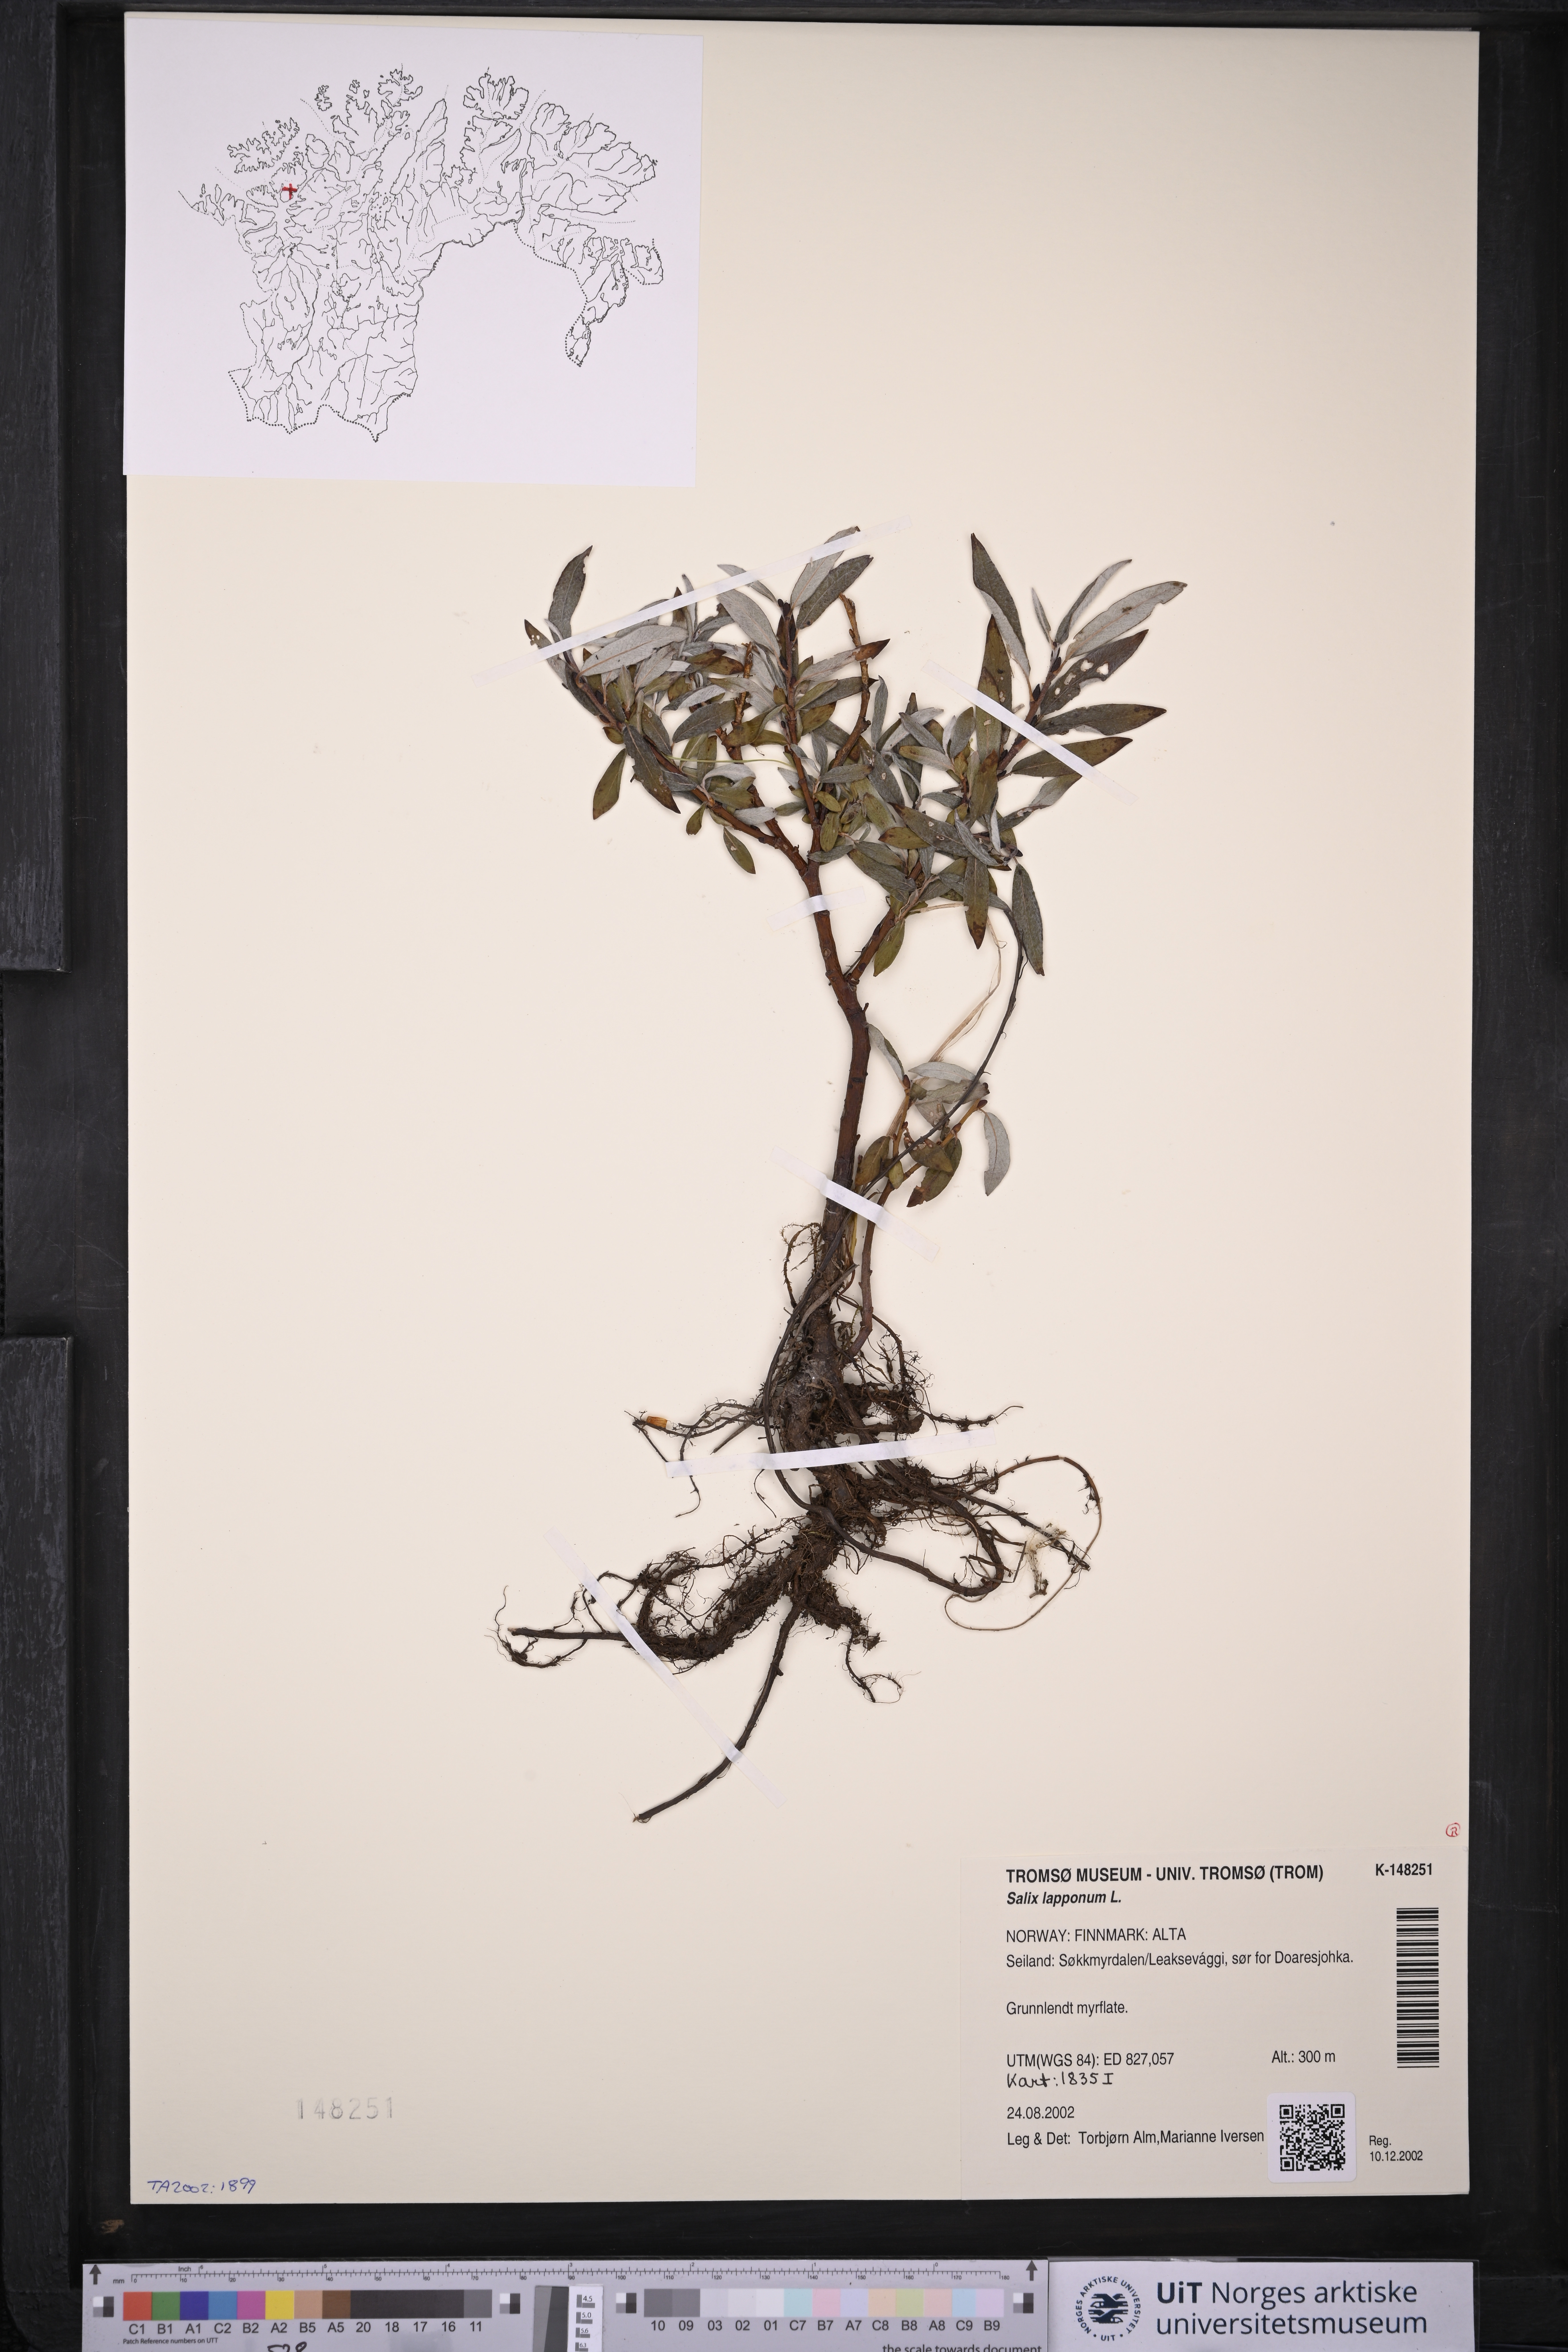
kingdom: Plantae
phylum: Tracheophyta
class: Magnoliopsida
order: Malpighiales
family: Salicaceae
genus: Salix
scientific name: Salix lapponum
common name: Downy willow
